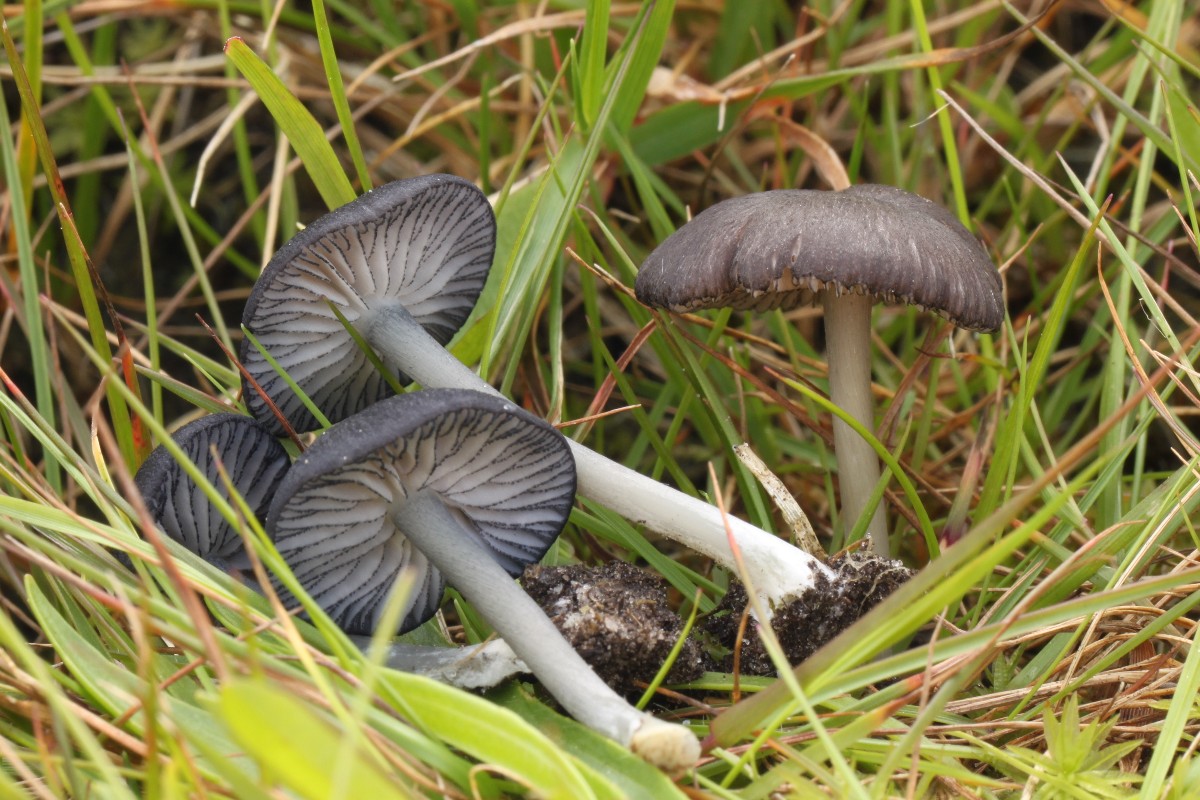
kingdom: Fungi
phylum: Basidiomycota
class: Agaricomycetes
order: Agaricales
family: Entolomataceae
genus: Entoloma
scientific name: Entoloma caesiocinctum
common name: Blue-girdled pinkgill
